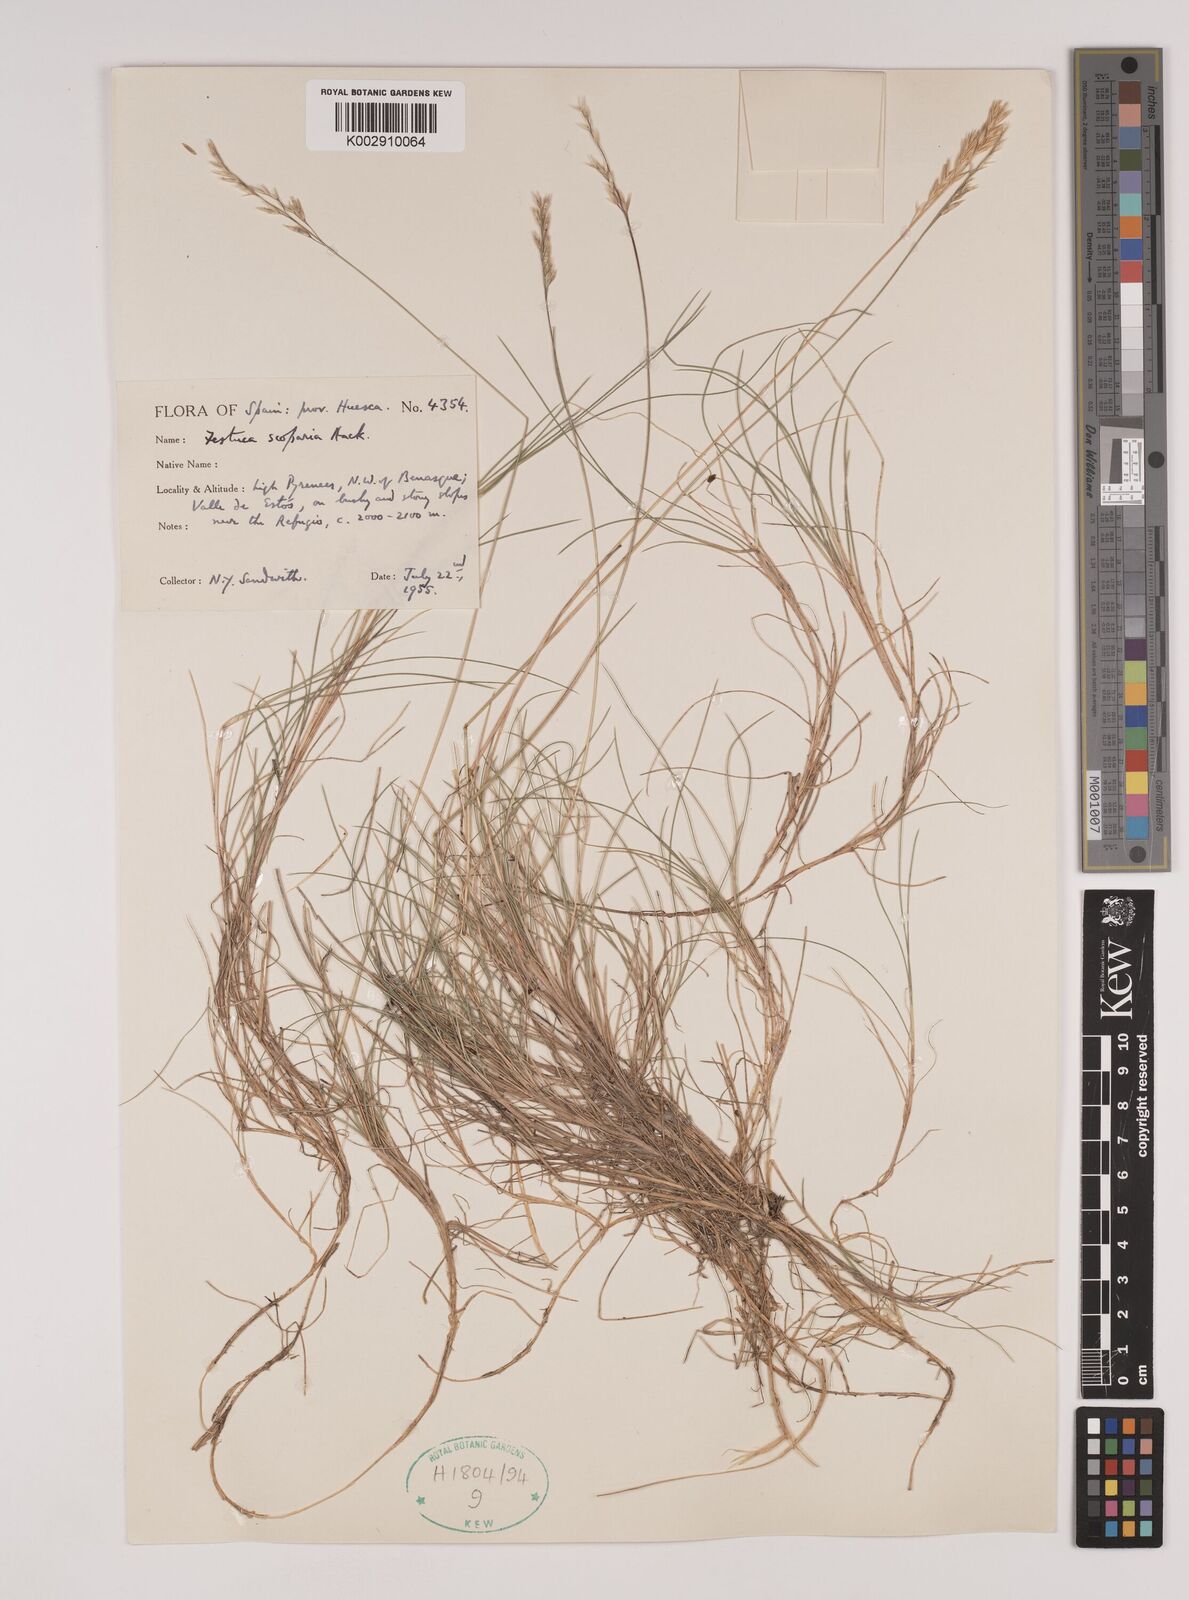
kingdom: Plantae
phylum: Tracheophyta
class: Liliopsida
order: Poales
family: Poaceae
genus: Festuca
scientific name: Festuca gautieri
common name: Spiky fescue
